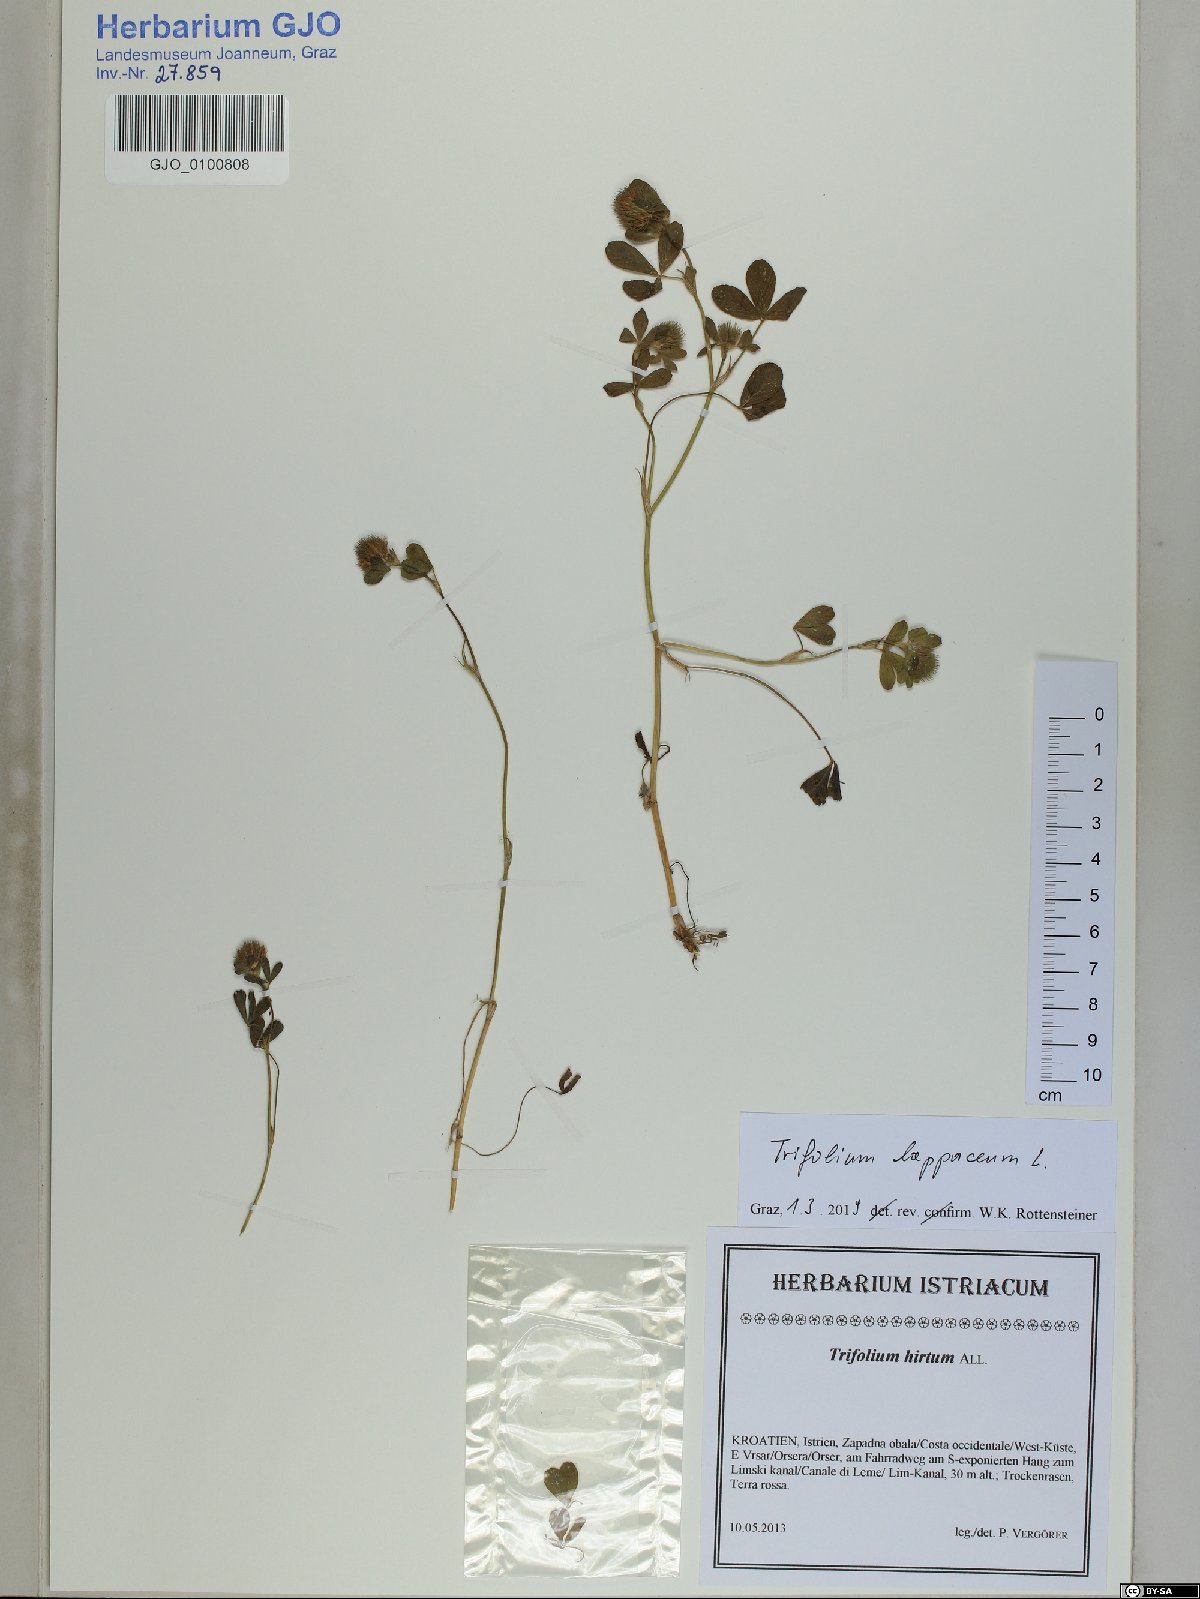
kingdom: Plantae
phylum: Tracheophyta
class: Magnoliopsida
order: Fabales
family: Fabaceae
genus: Trifolium
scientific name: Trifolium lappaceum
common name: Bur clover
